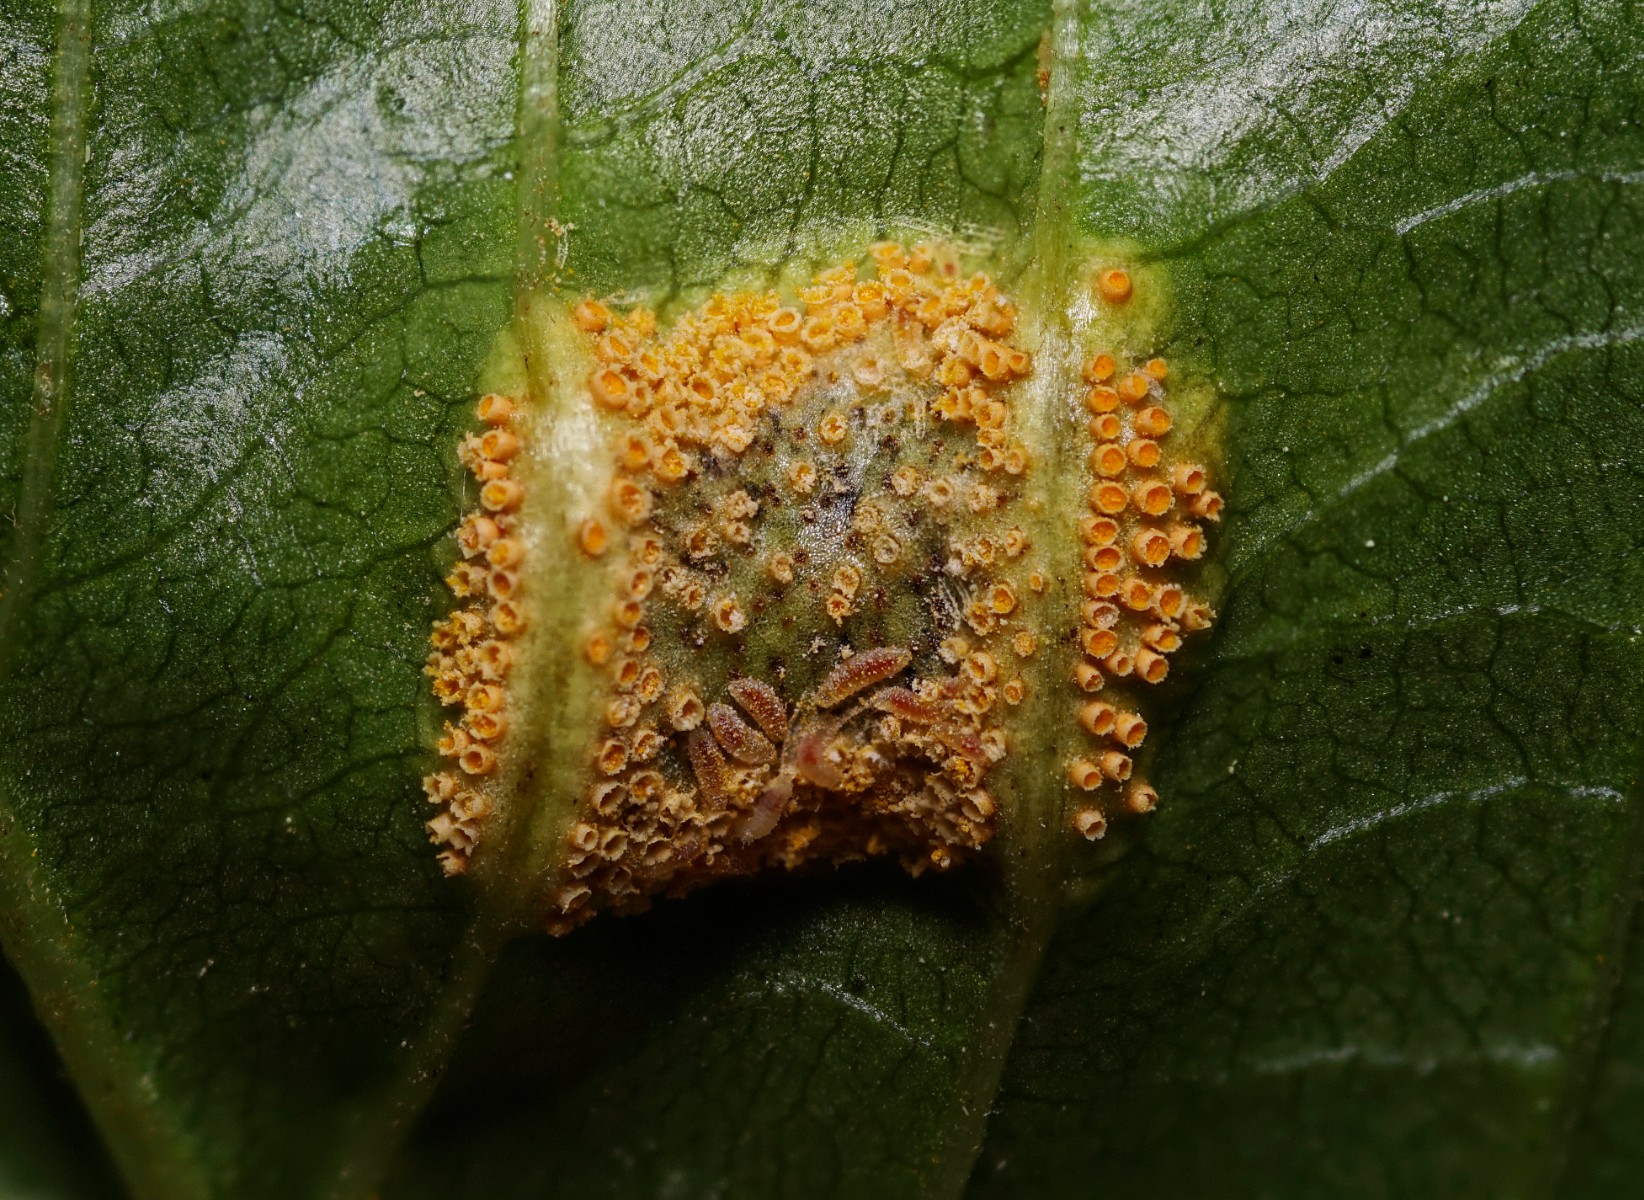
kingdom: Fungi
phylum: Basidiomycota
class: Pucciniomycetes
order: Pucciniales
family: Pucciniaceae
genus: Puccinia
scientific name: Puccinia coronata
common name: Crown rust
